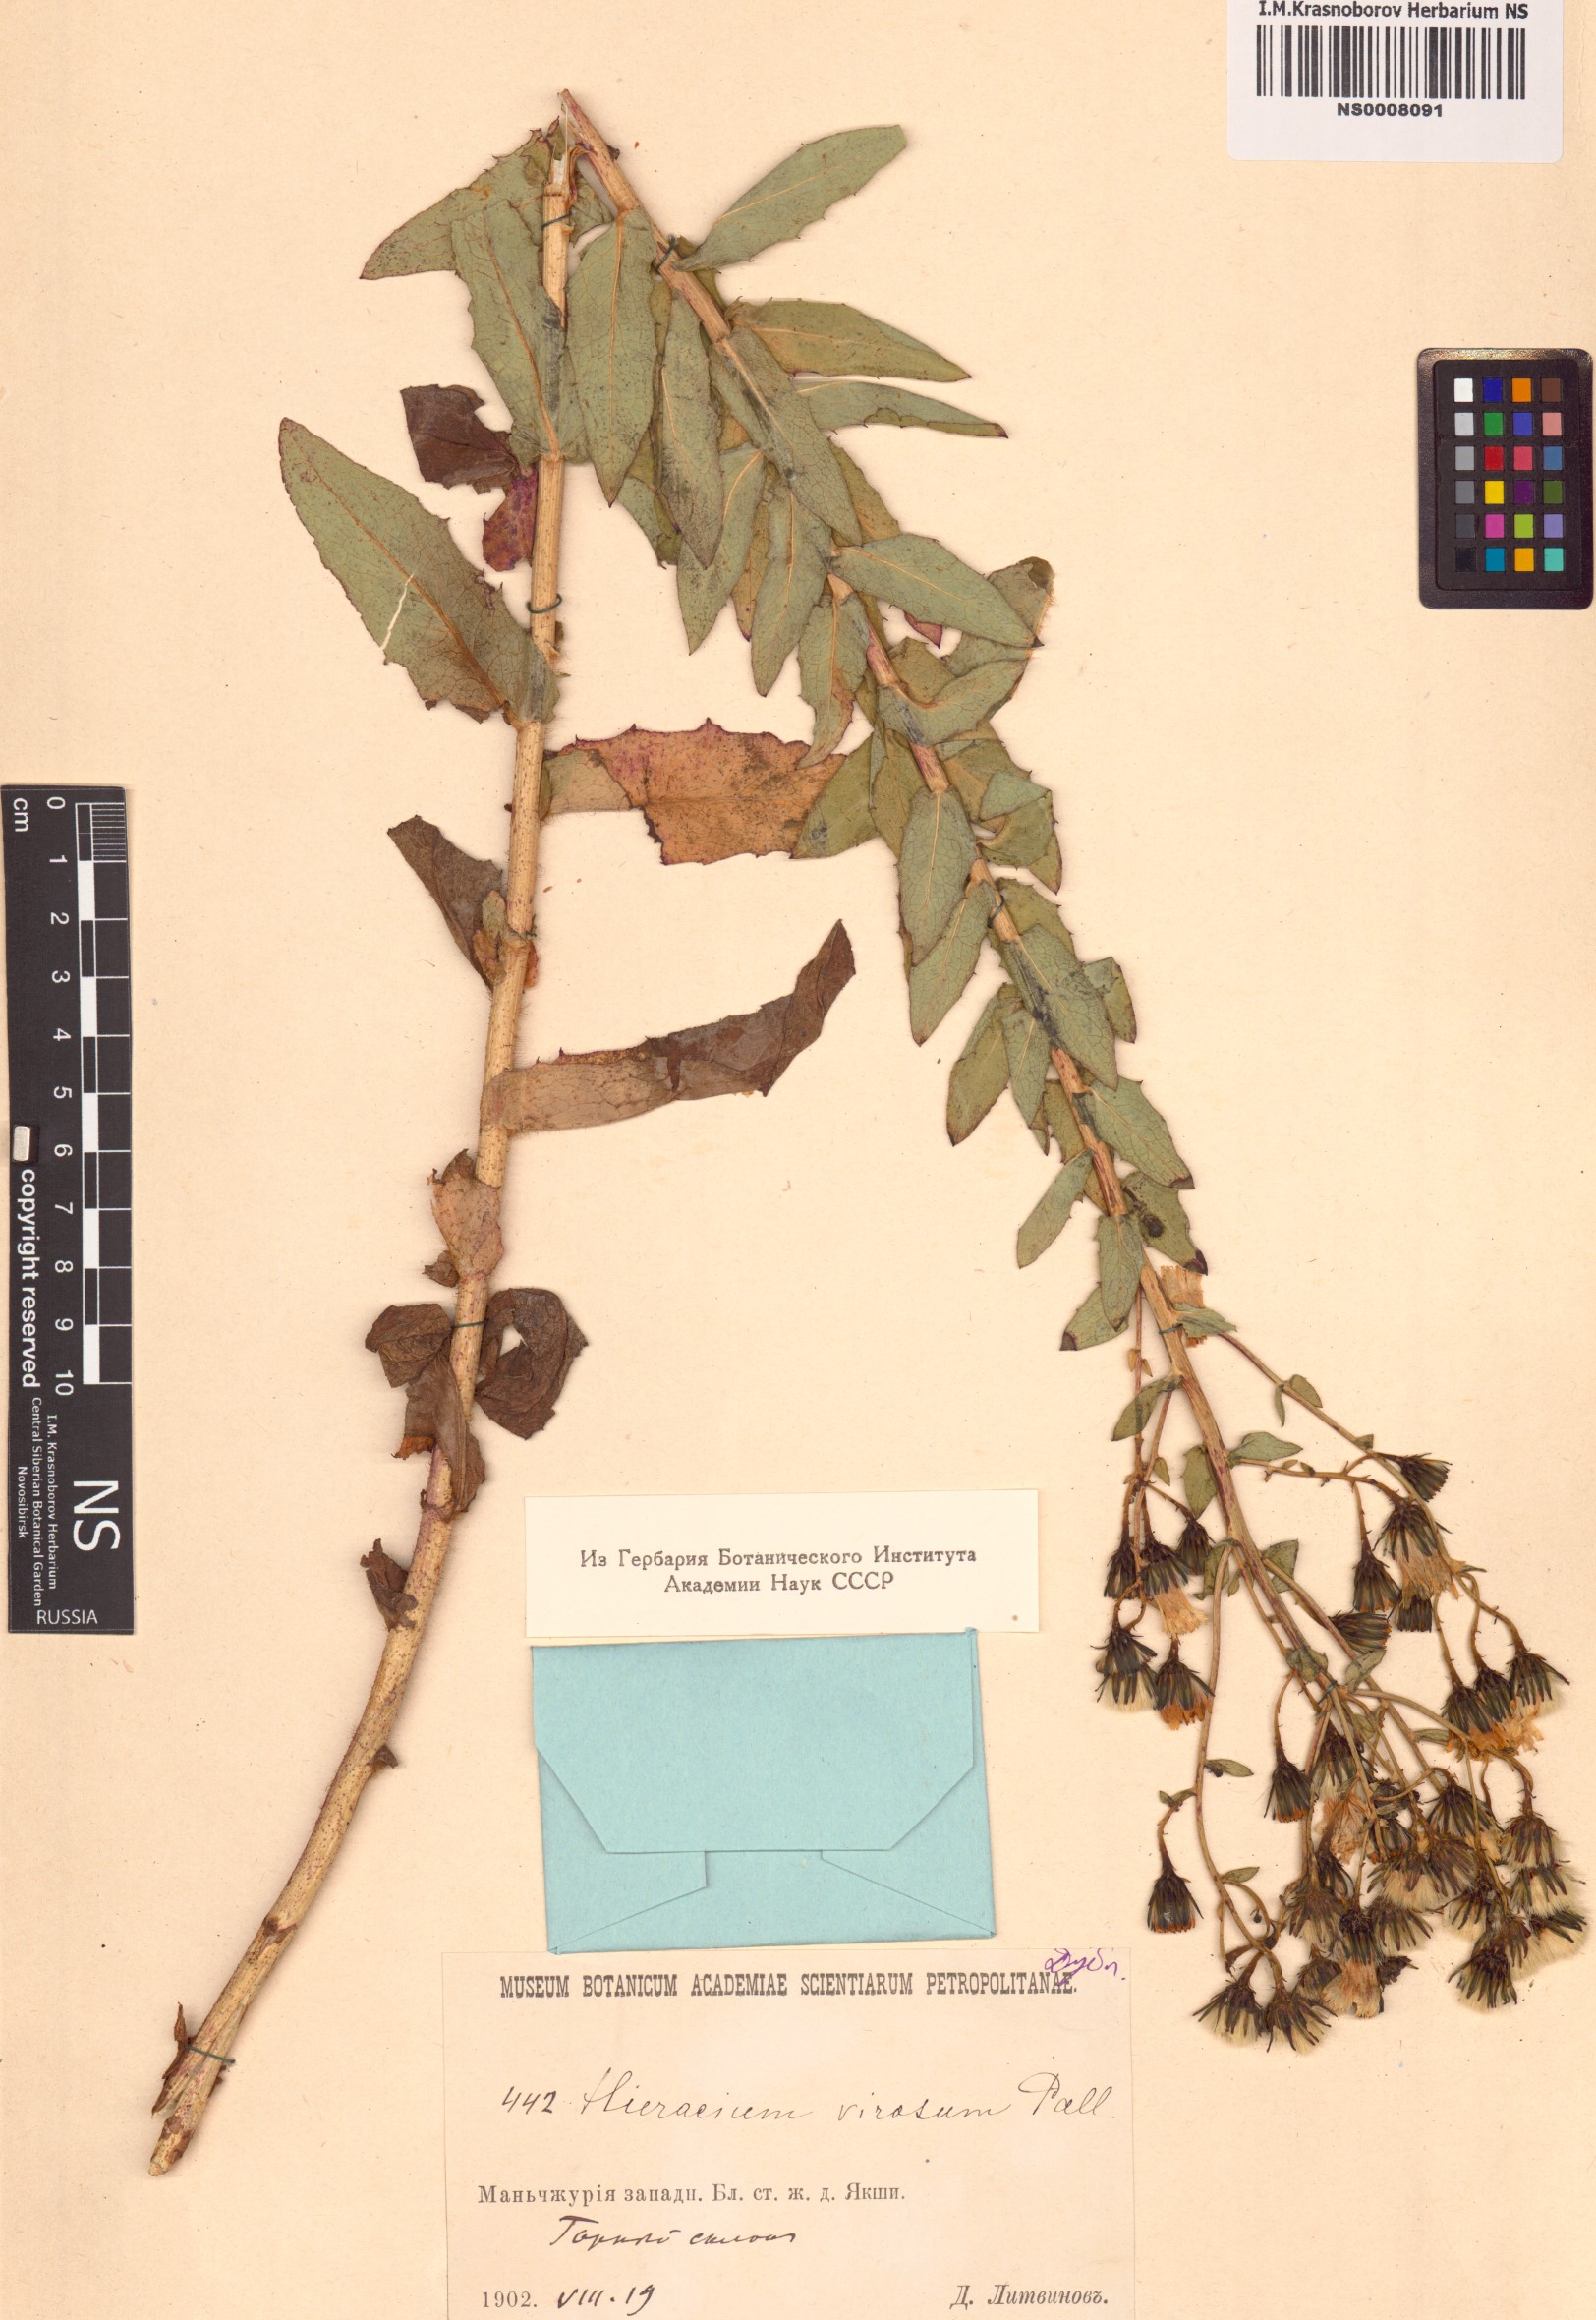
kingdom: Plantae
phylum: Tracheophyta
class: Magnoliopsida
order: Asterales
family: Asteraceae
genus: Hieracium
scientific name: Hieracium virosum
